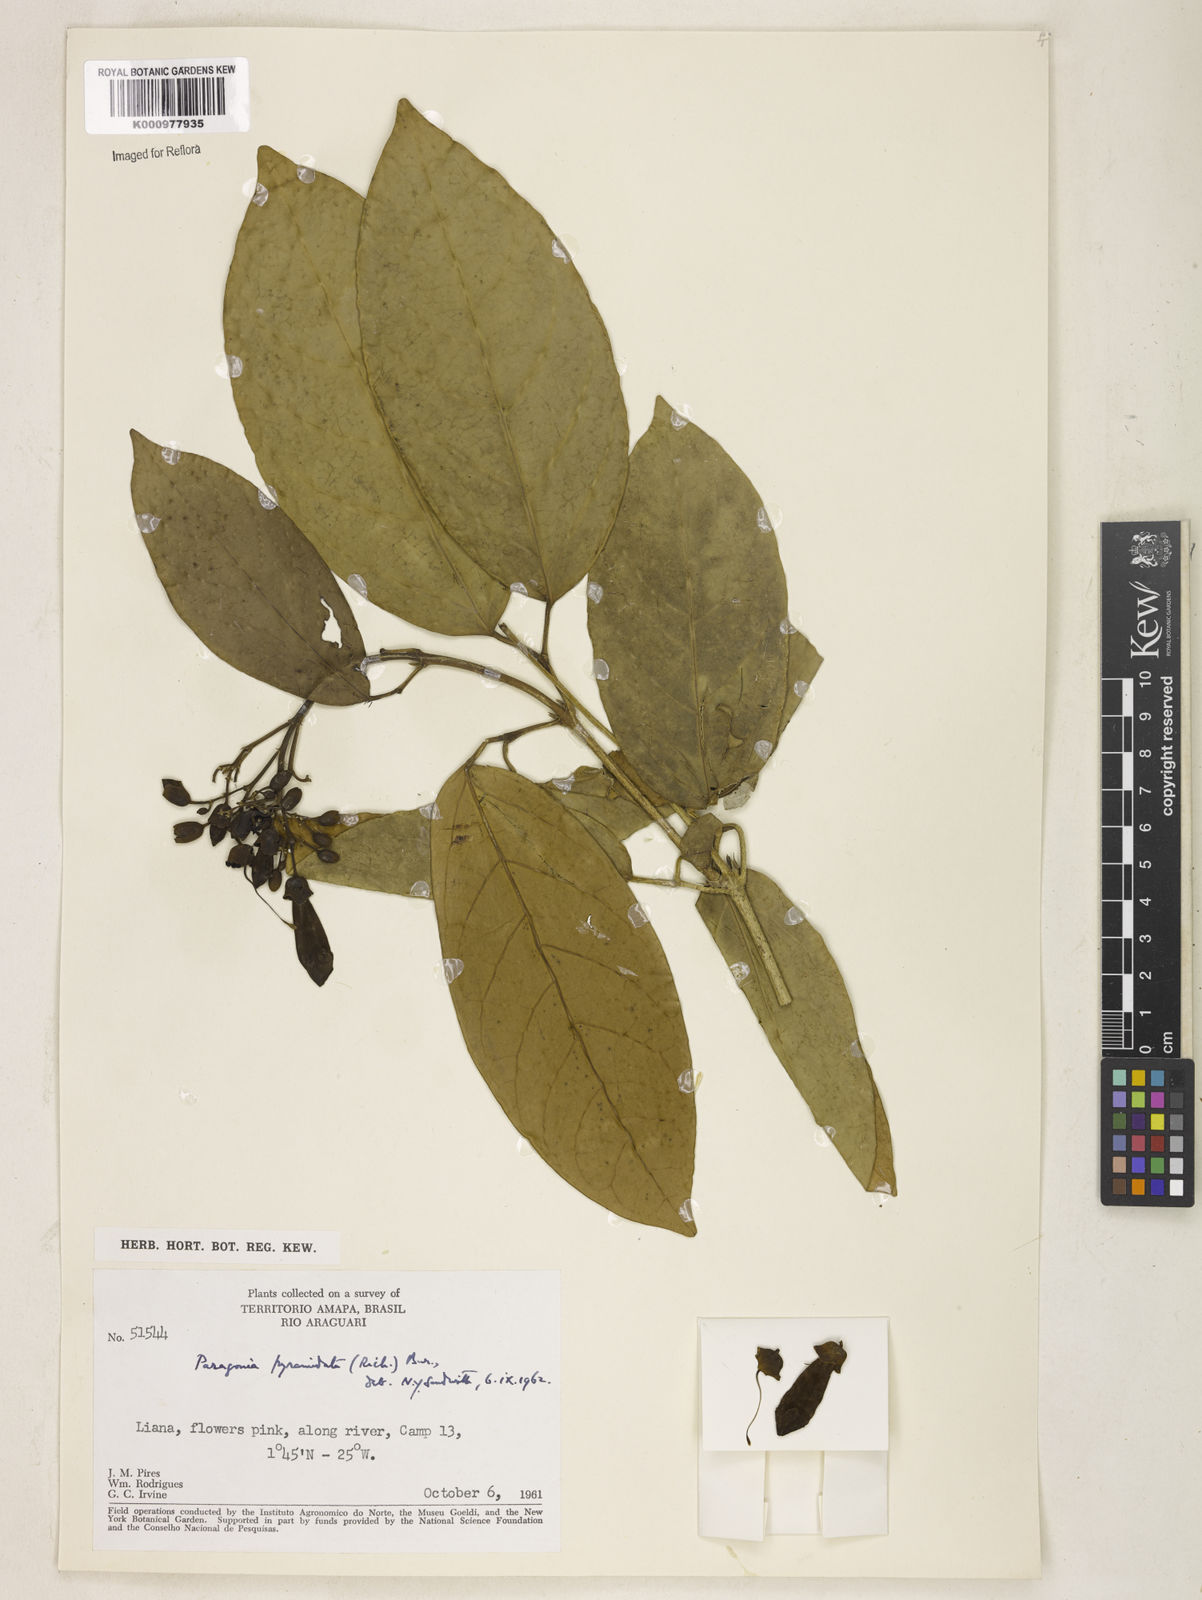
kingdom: Plantae
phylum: Tracheophyta
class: Magnoliopsida
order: Lamiales
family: Bignoniaceae
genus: Tanaecium
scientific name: Tanaecium pyramidatum
